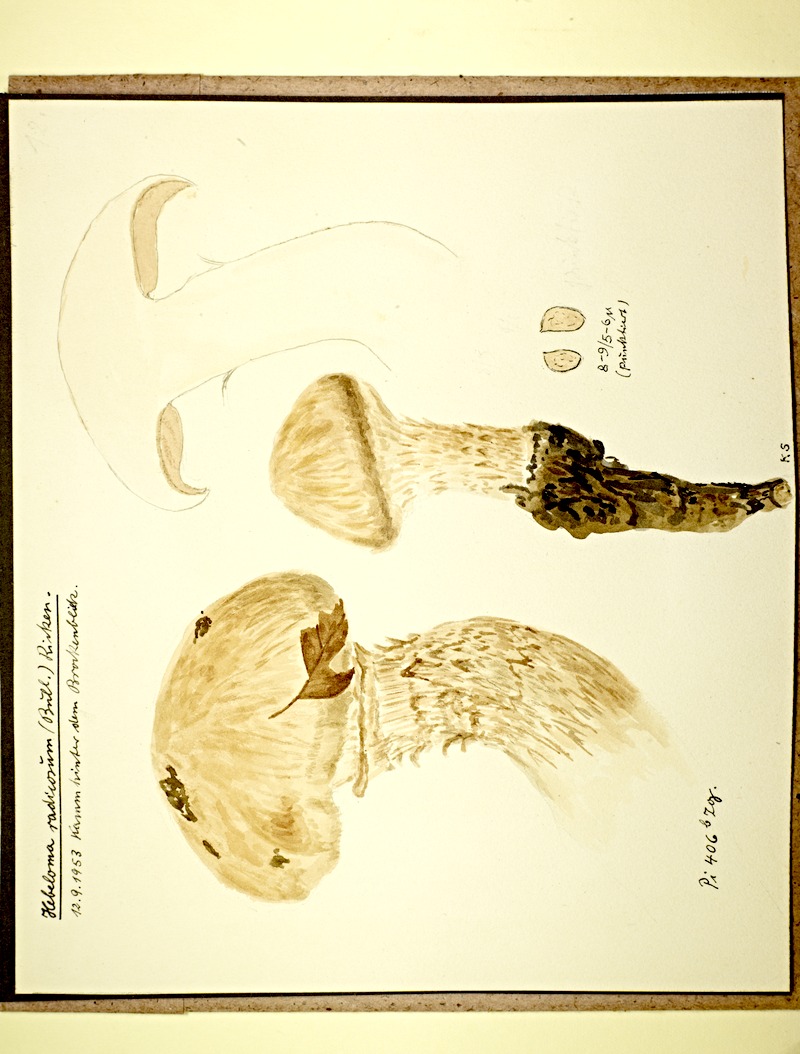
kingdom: Fungi
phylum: Basidiomycota
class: Agaricomycetes
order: Agaricales
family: Hymenogastraceae
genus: Hebeloma
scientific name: Hebeloma radicosum
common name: Rooting poisonpie
